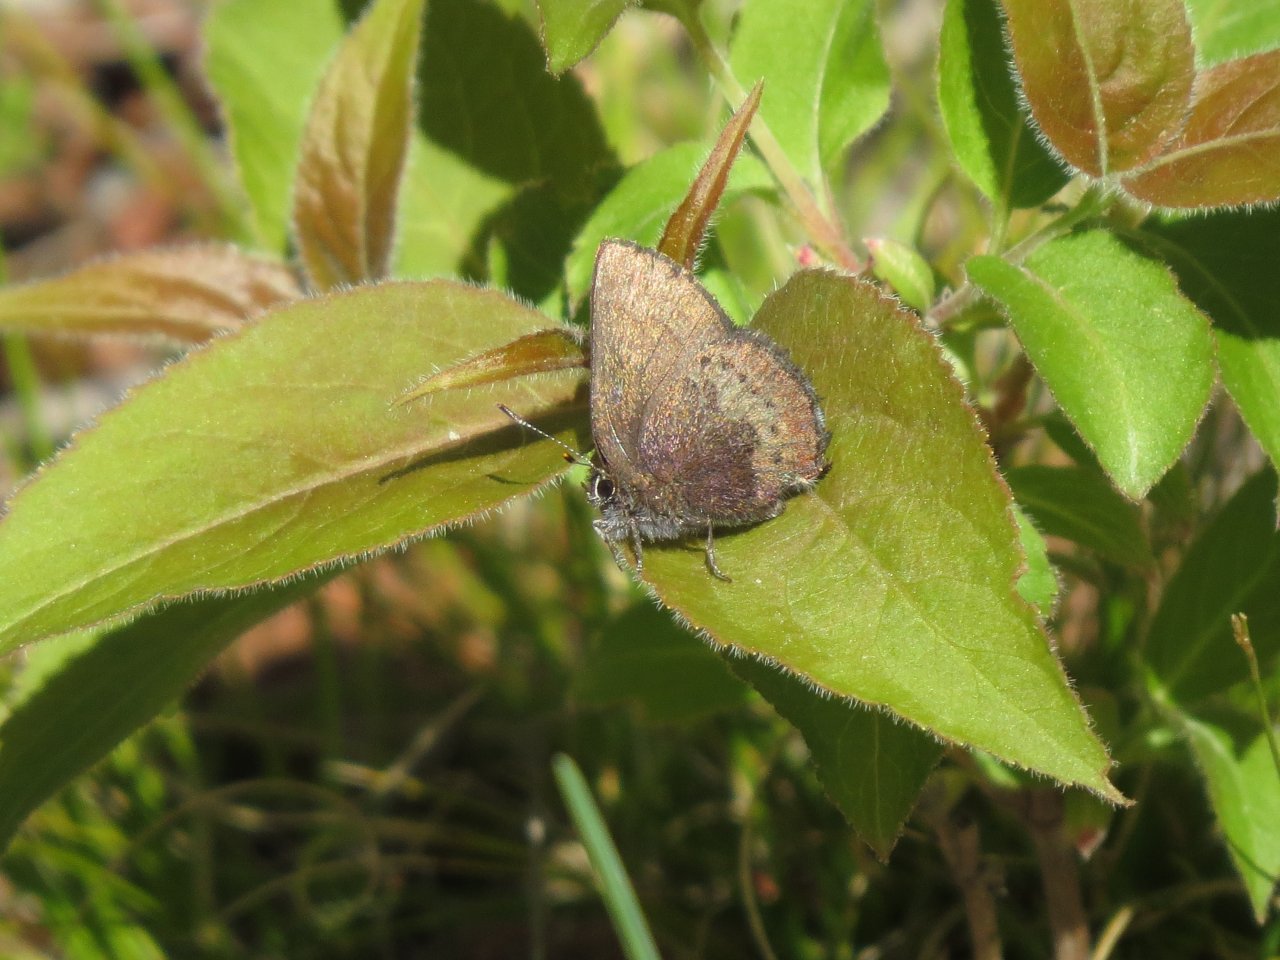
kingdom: Animalia
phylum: Arthropoda
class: Insecta
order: Lepidoptera
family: Lycaenidae
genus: Incisalia
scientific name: Incisalia irioides
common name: Brown Elfin
